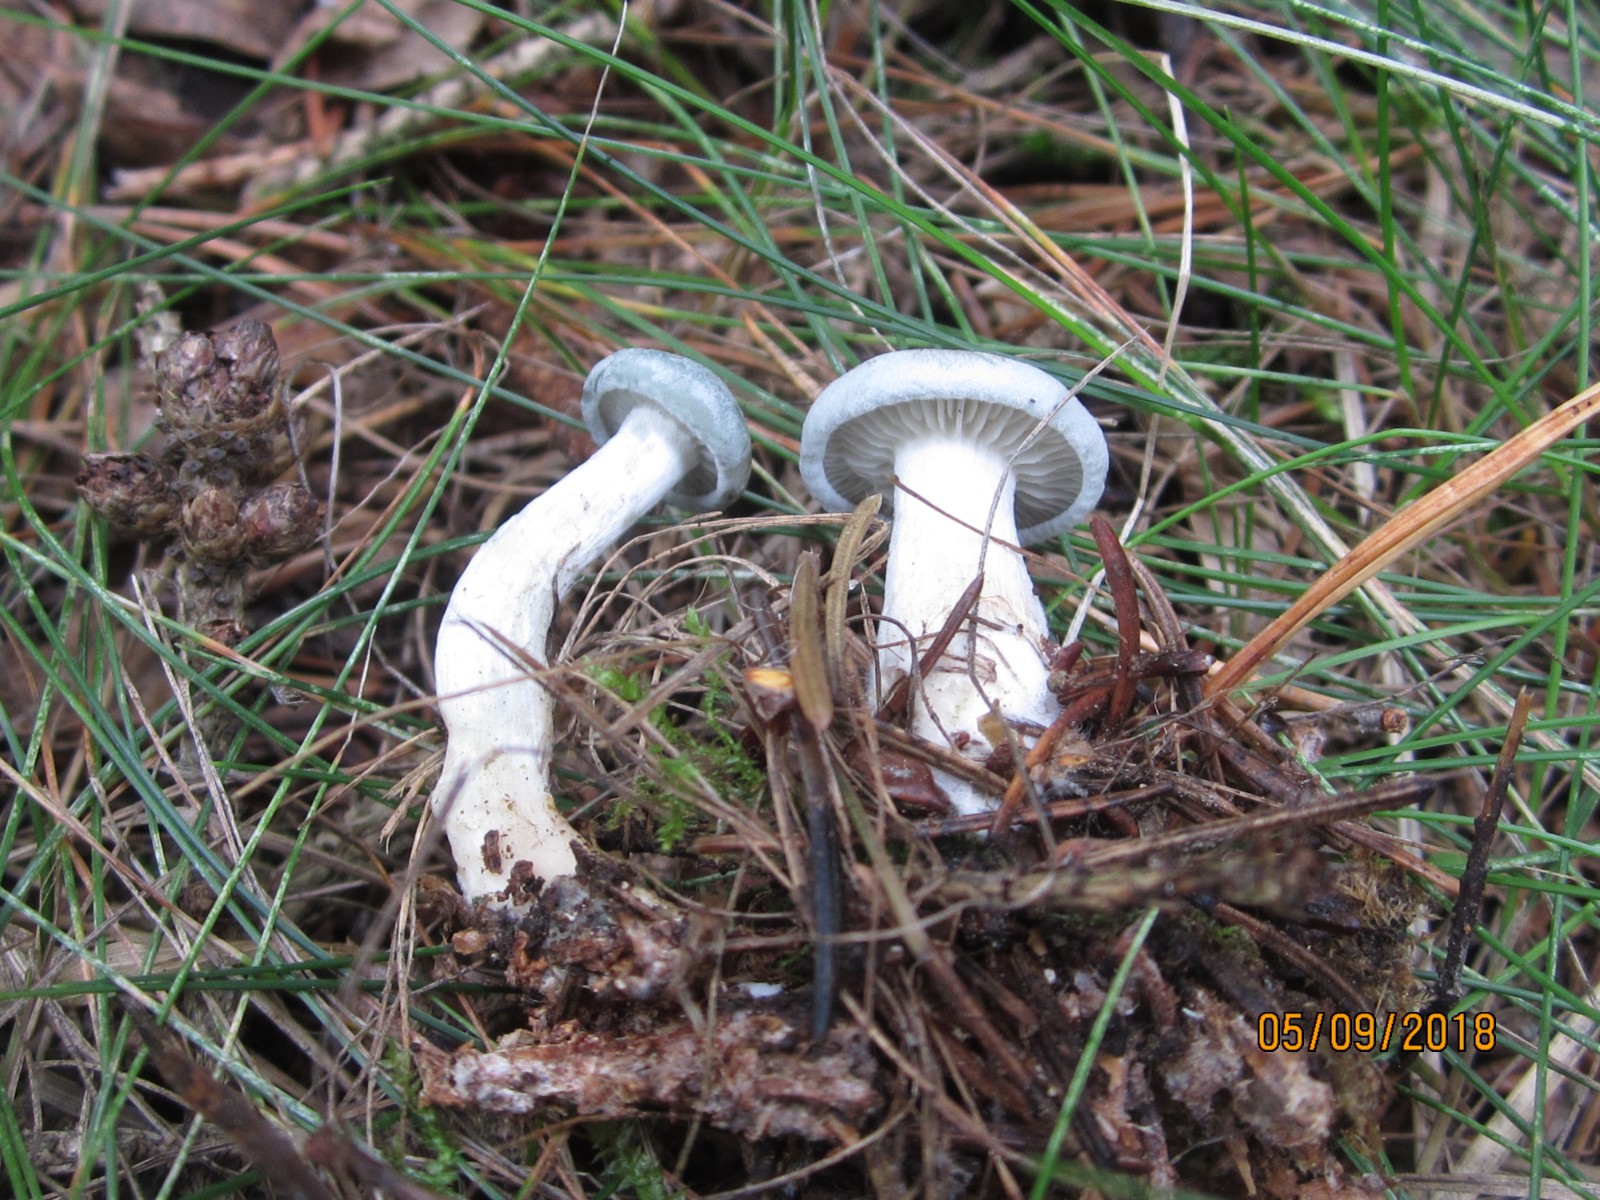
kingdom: Fungi
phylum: Basidiomycota
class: Agaricomycetes
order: Agaricales
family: Tricholomataceae
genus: Clitocybe
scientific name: Clitocybe odora
